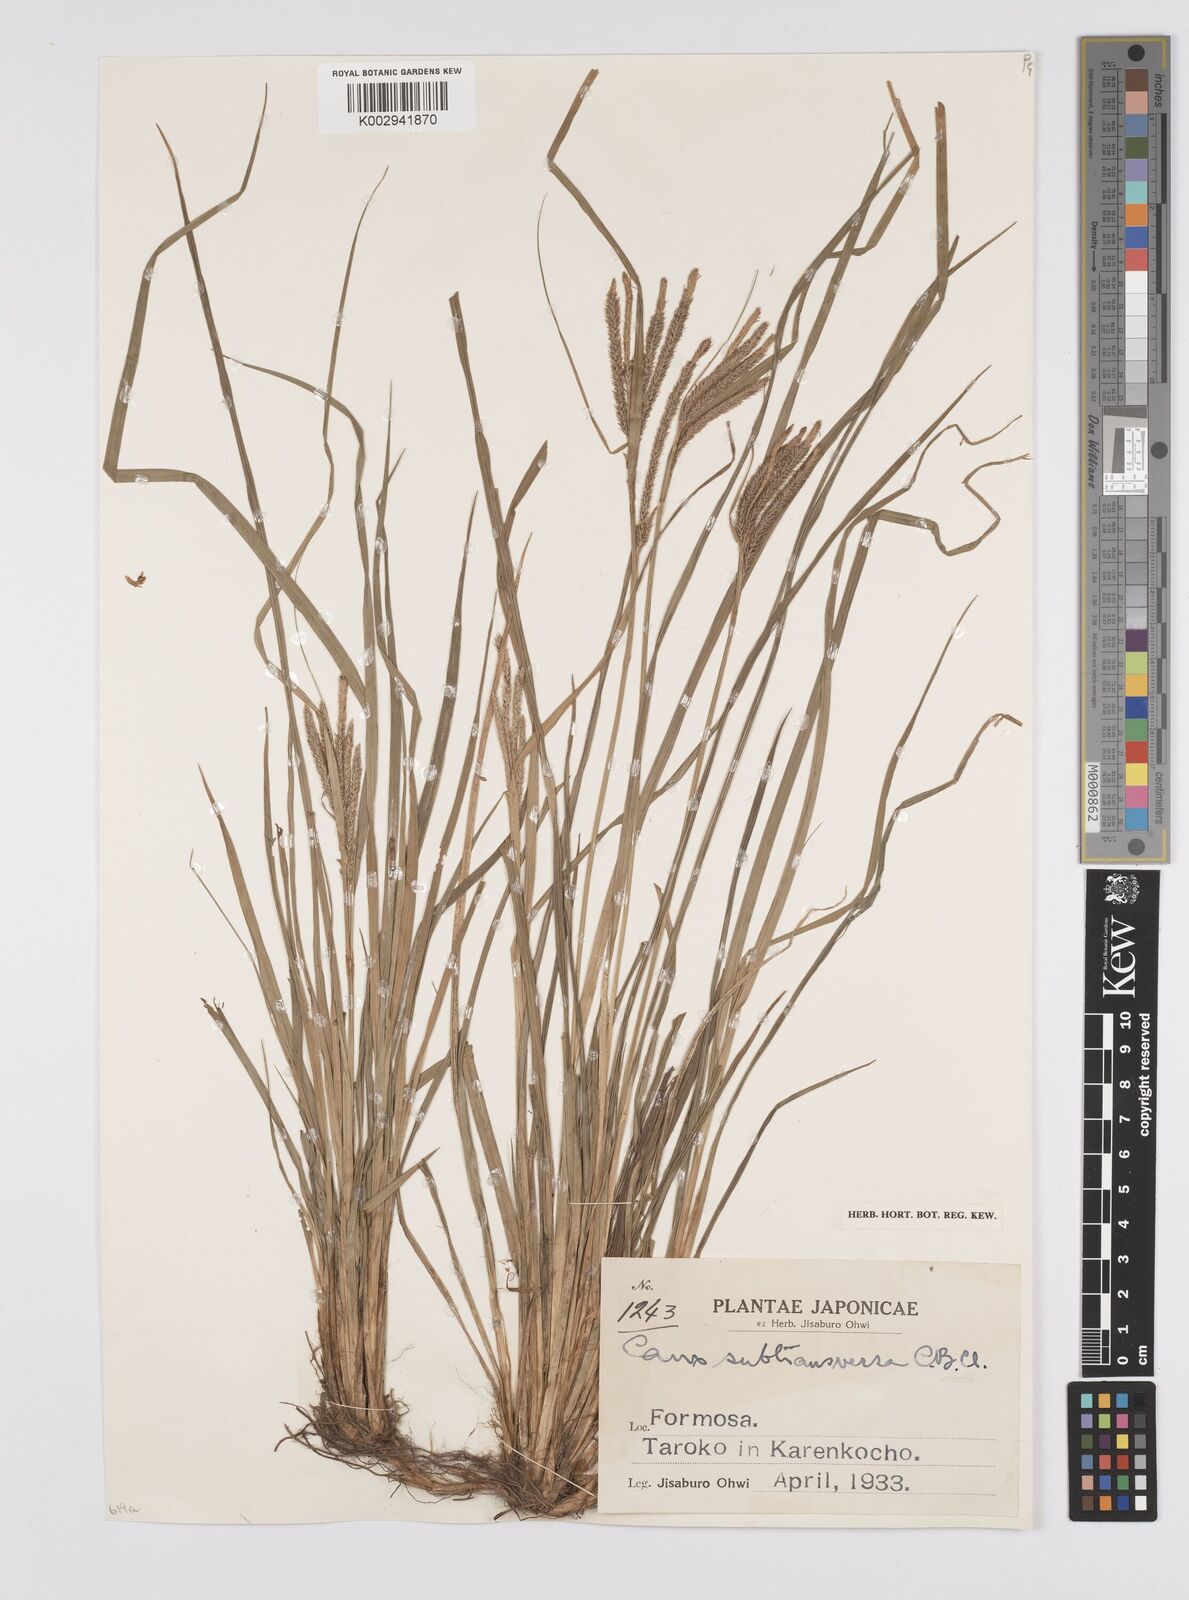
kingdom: Plantae
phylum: Tracheophyta
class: Liliopsida
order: Poales
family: Cyperaceae
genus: Carex
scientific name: Carex subtransversa
